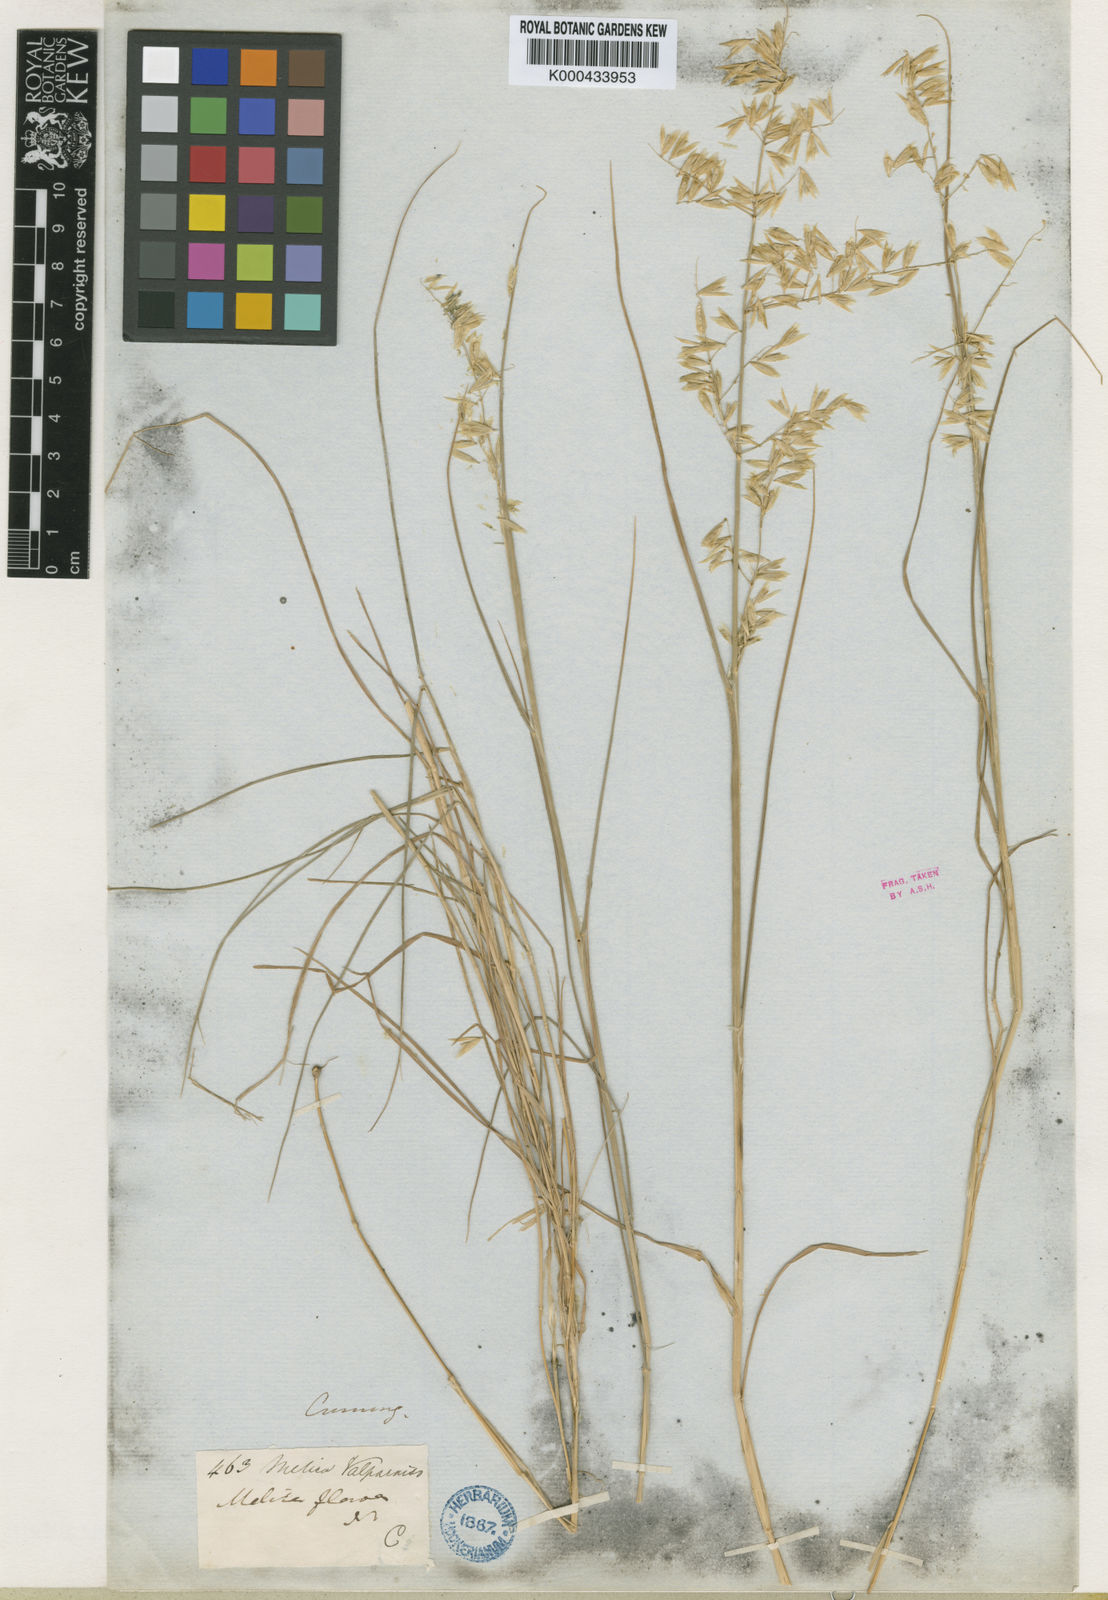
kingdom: Plantae
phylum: Tracheophyta
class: Liliopsida
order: Poales
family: Poaceae
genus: Melica
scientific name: Melica longiflora
